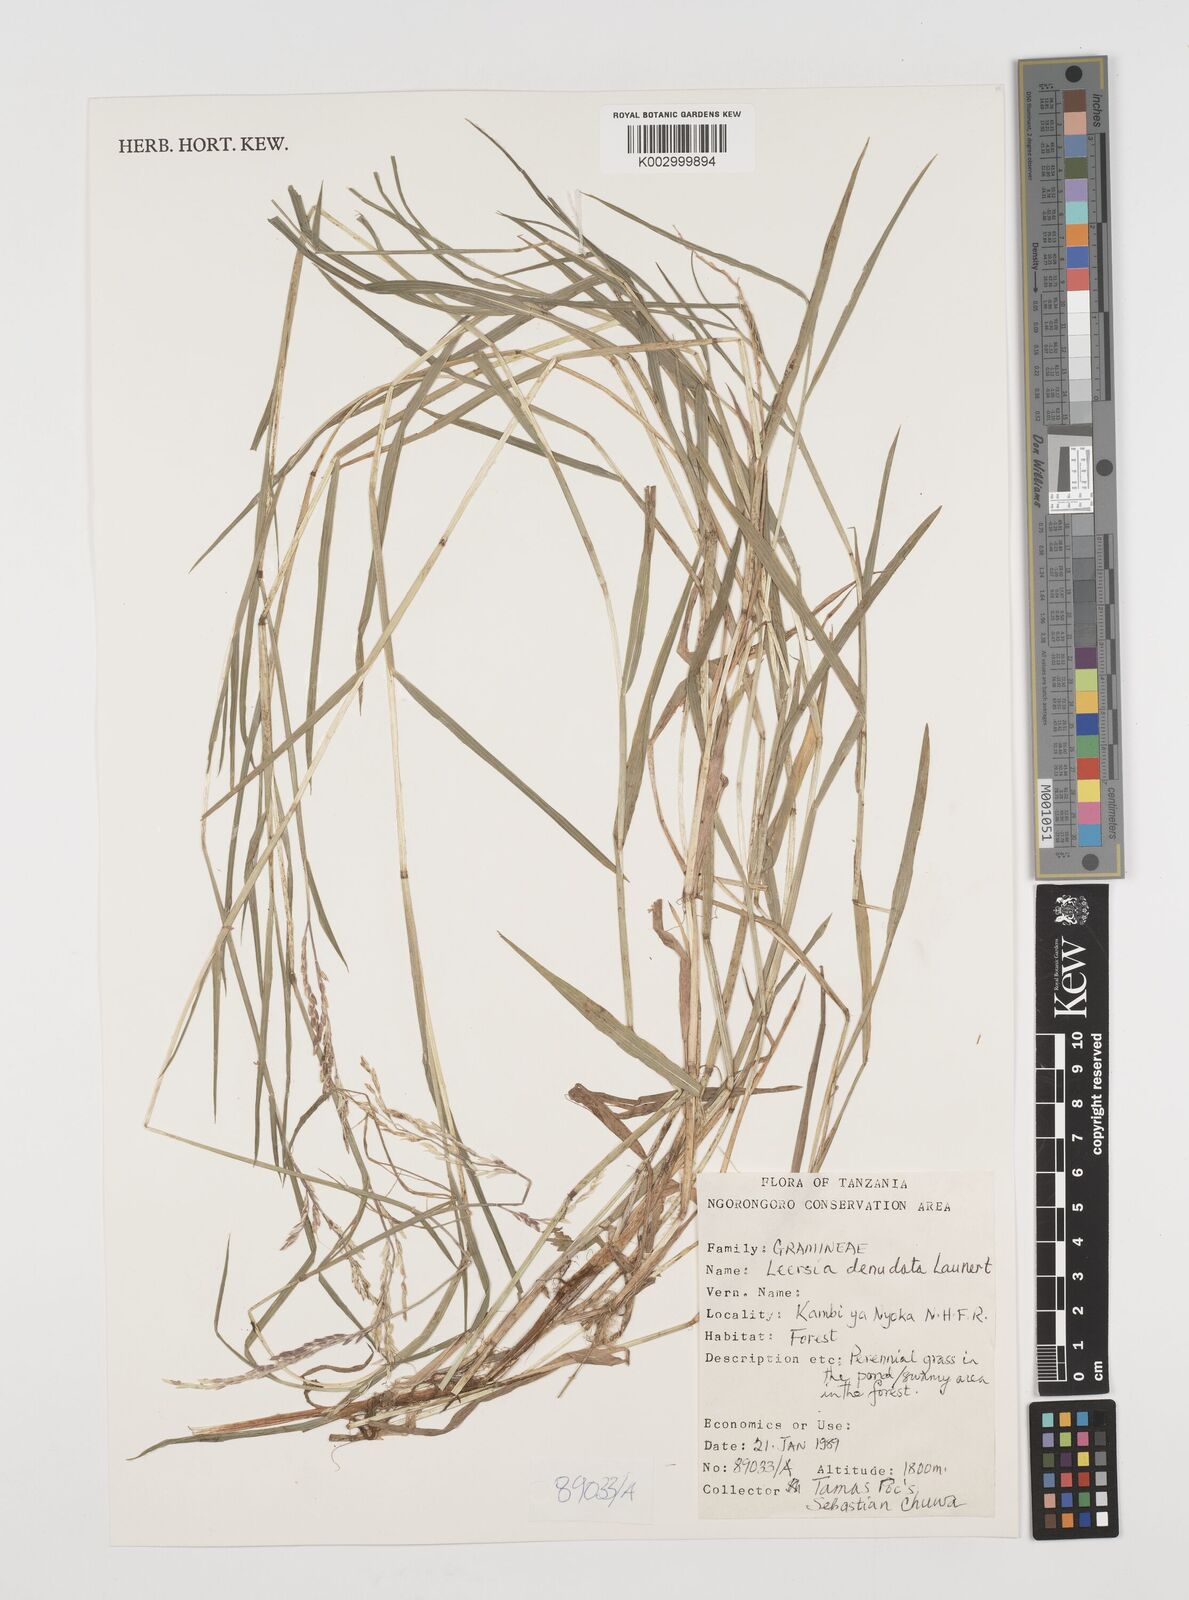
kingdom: Plantae
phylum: Tracheophyta
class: Liliopsida
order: Poales
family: Poaceae
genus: Leersia
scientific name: Leersia denudata
